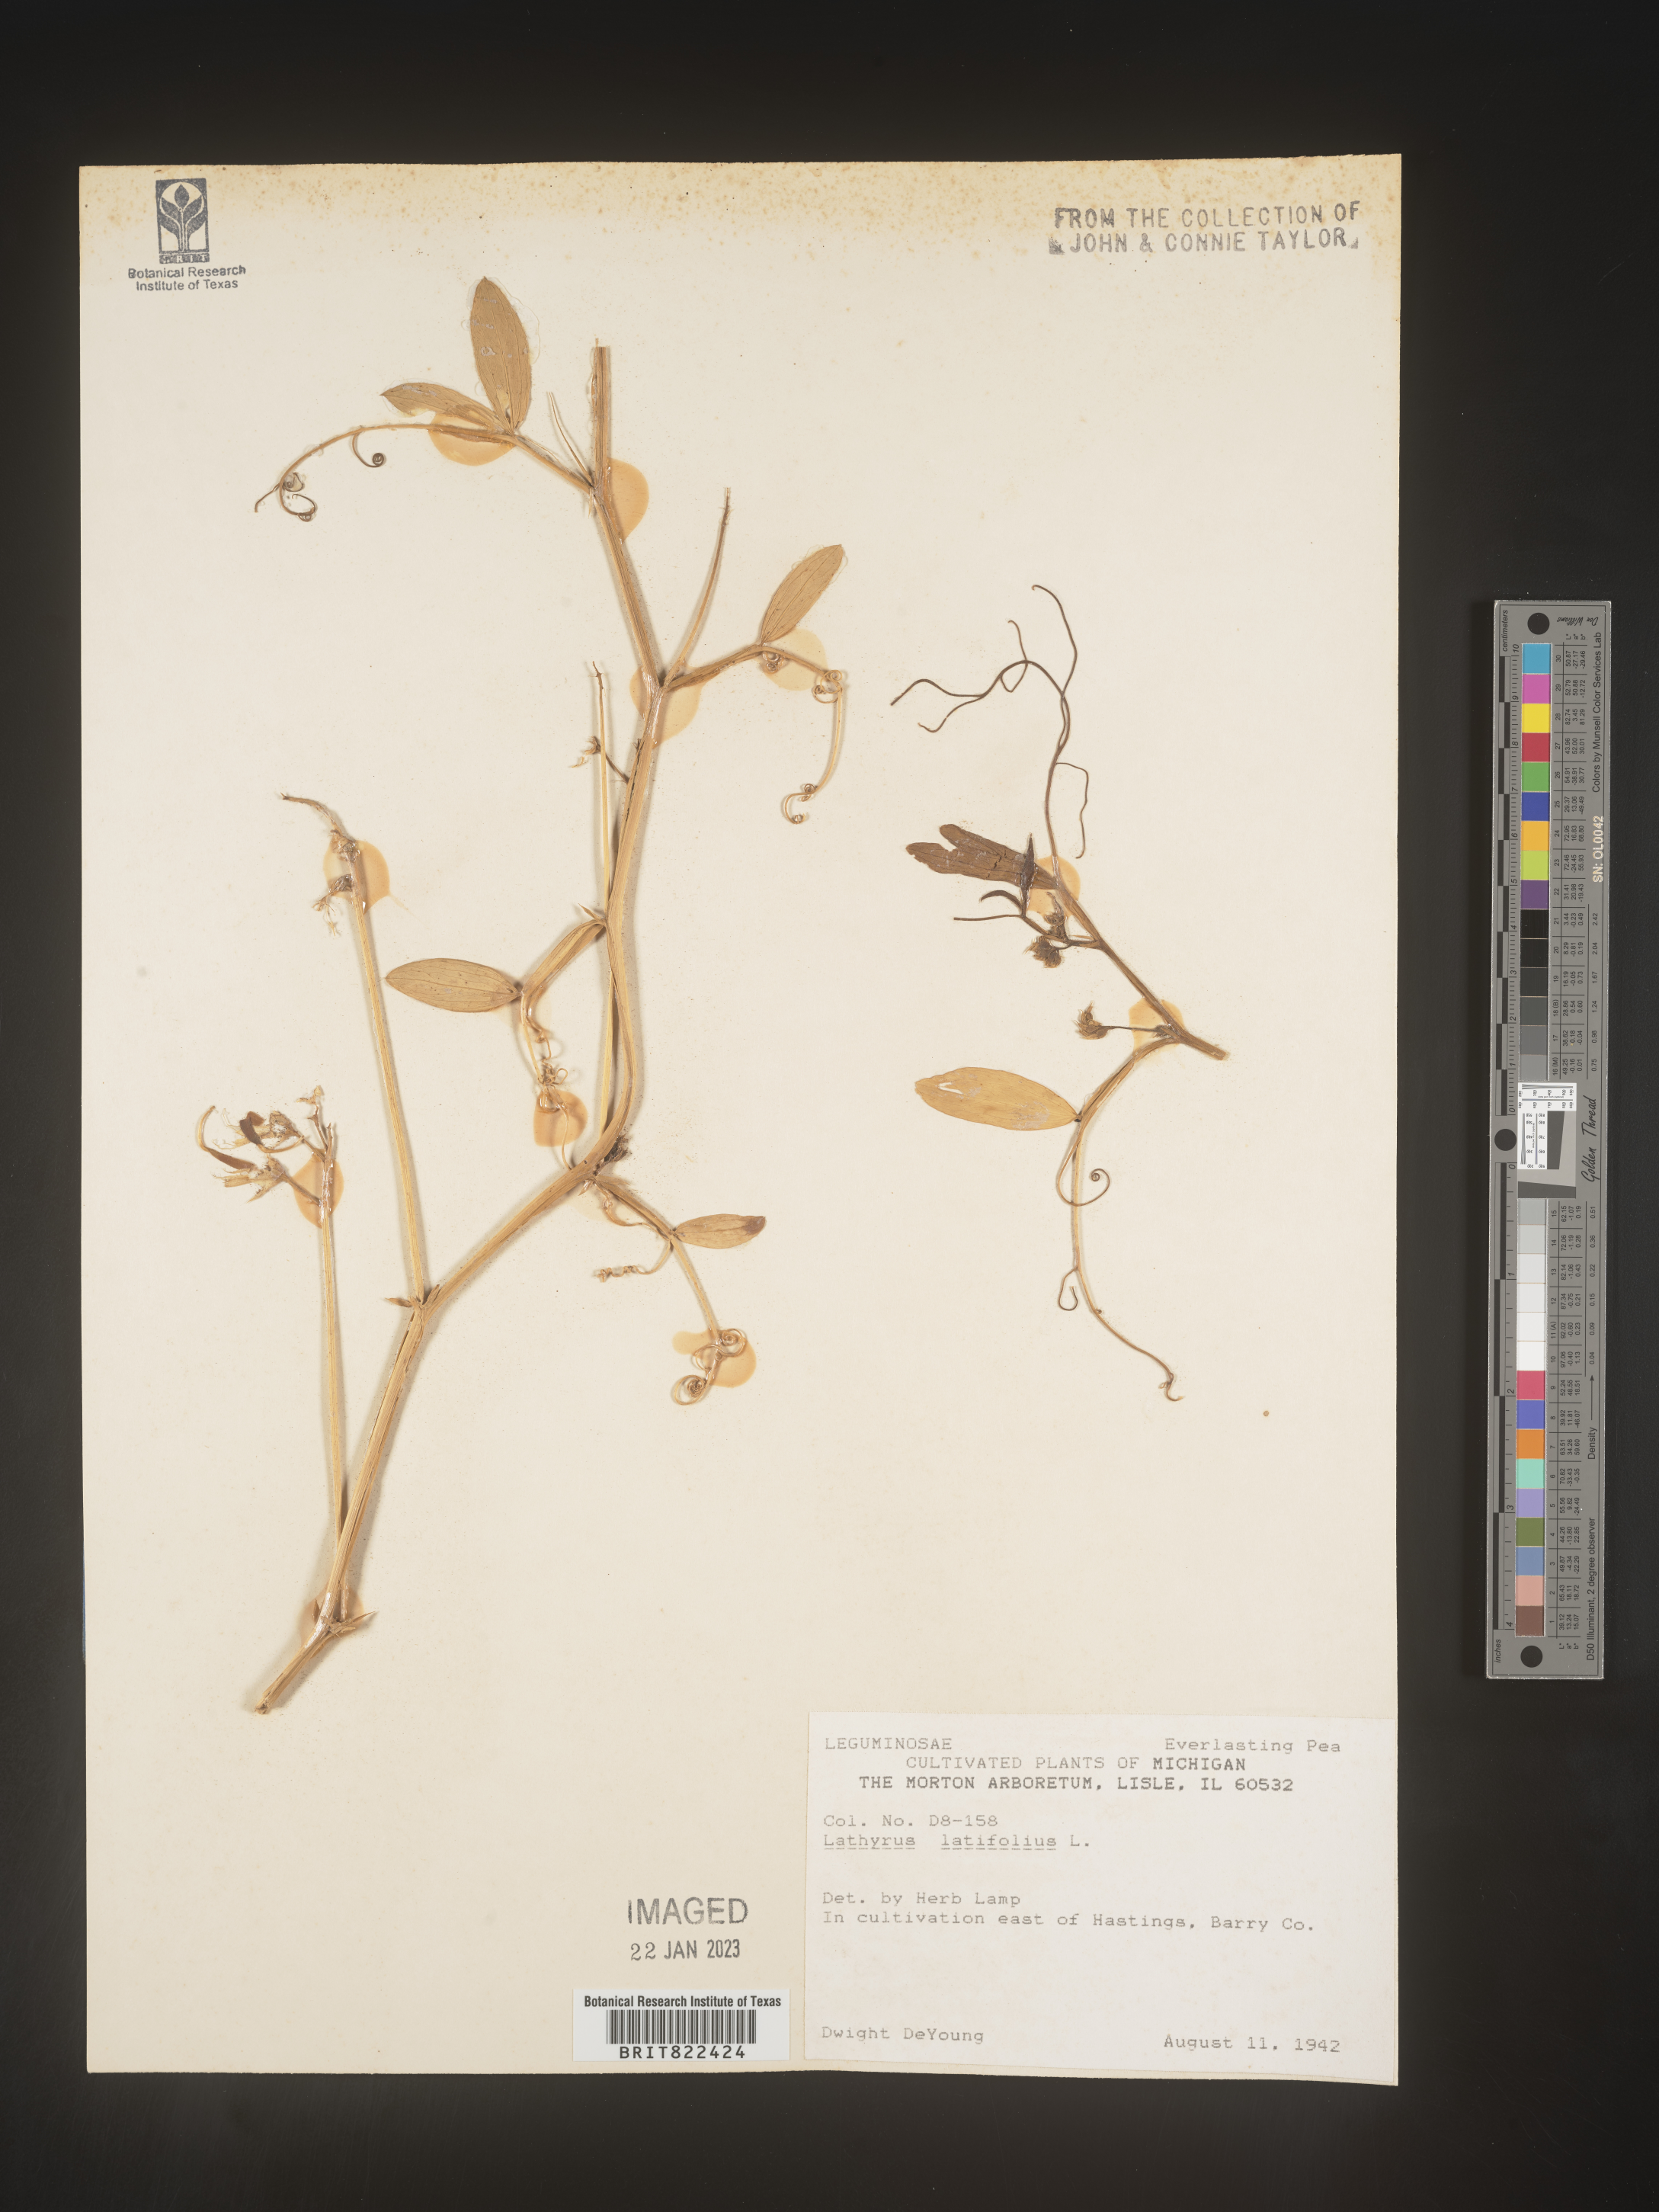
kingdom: Plantae
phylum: Tracheophyta
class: Magnoliopsida
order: Fabales
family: Fabaceae
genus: Lathyrus
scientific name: Lathyrus
